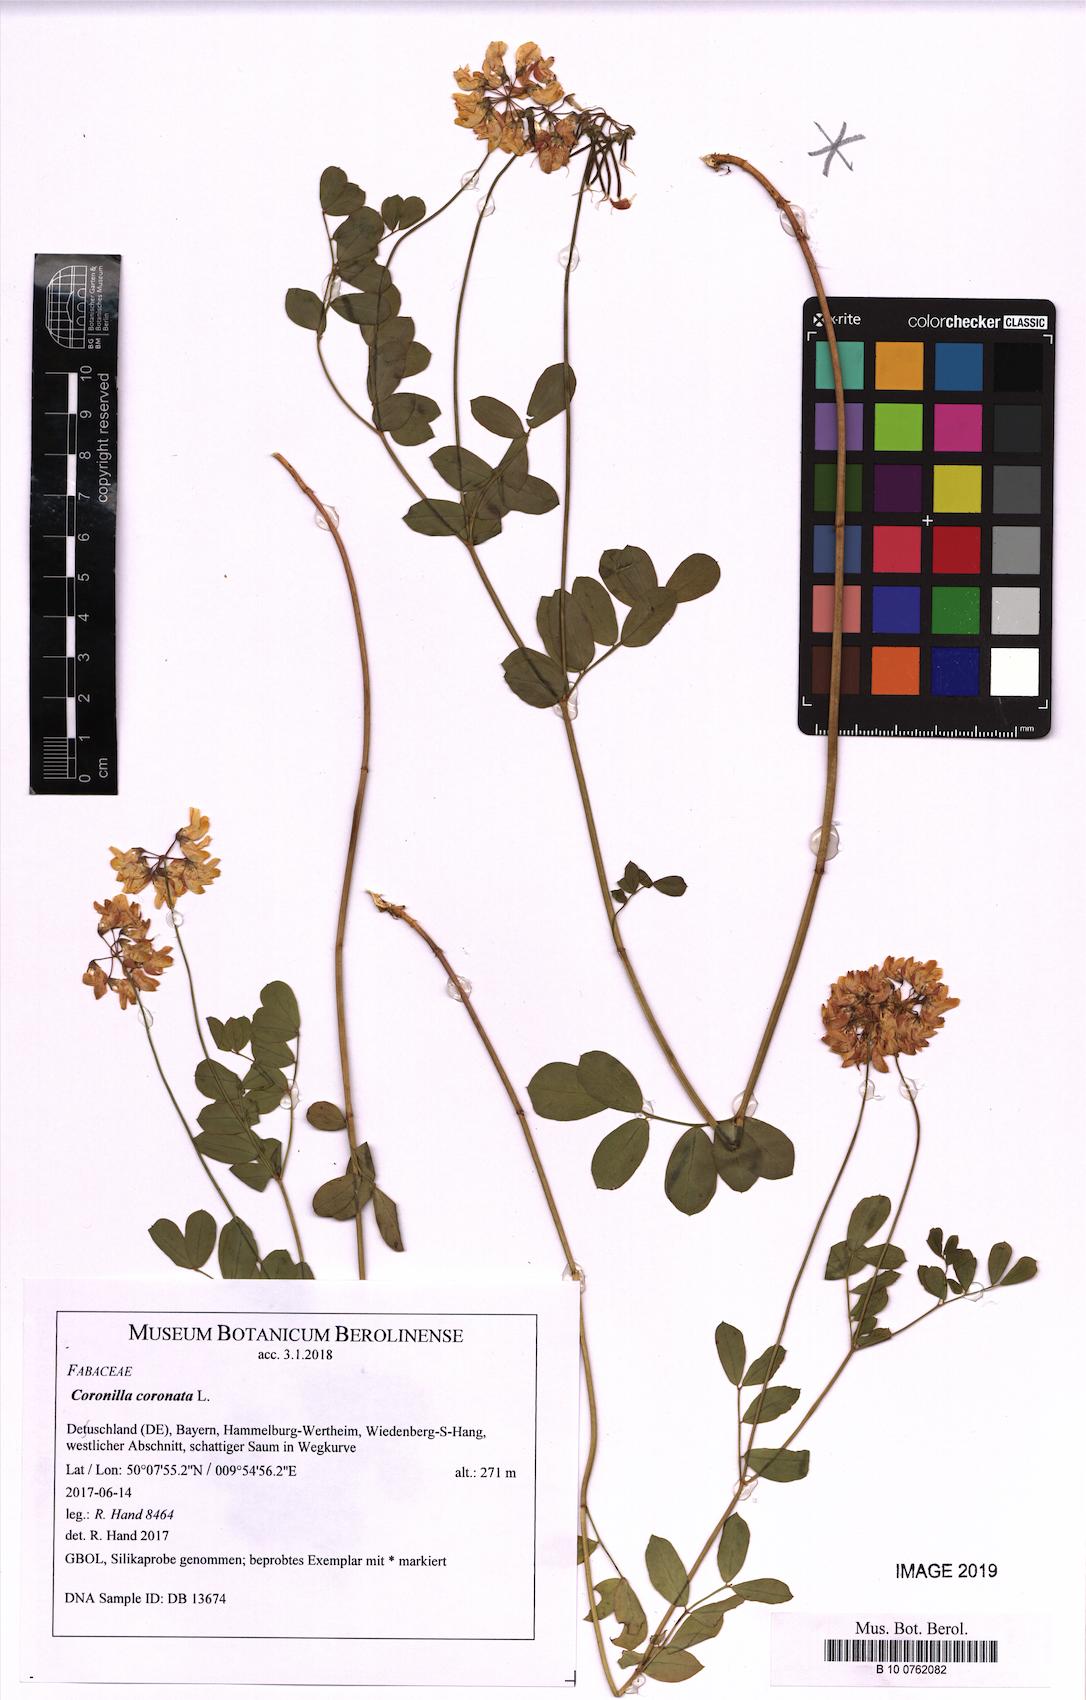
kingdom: Plantae
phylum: Tracheophyta
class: Magnoliopsida
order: Fabales
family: Fabaceae
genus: Coronilla
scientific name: Coronilla coronata
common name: Scorpion-vetch
